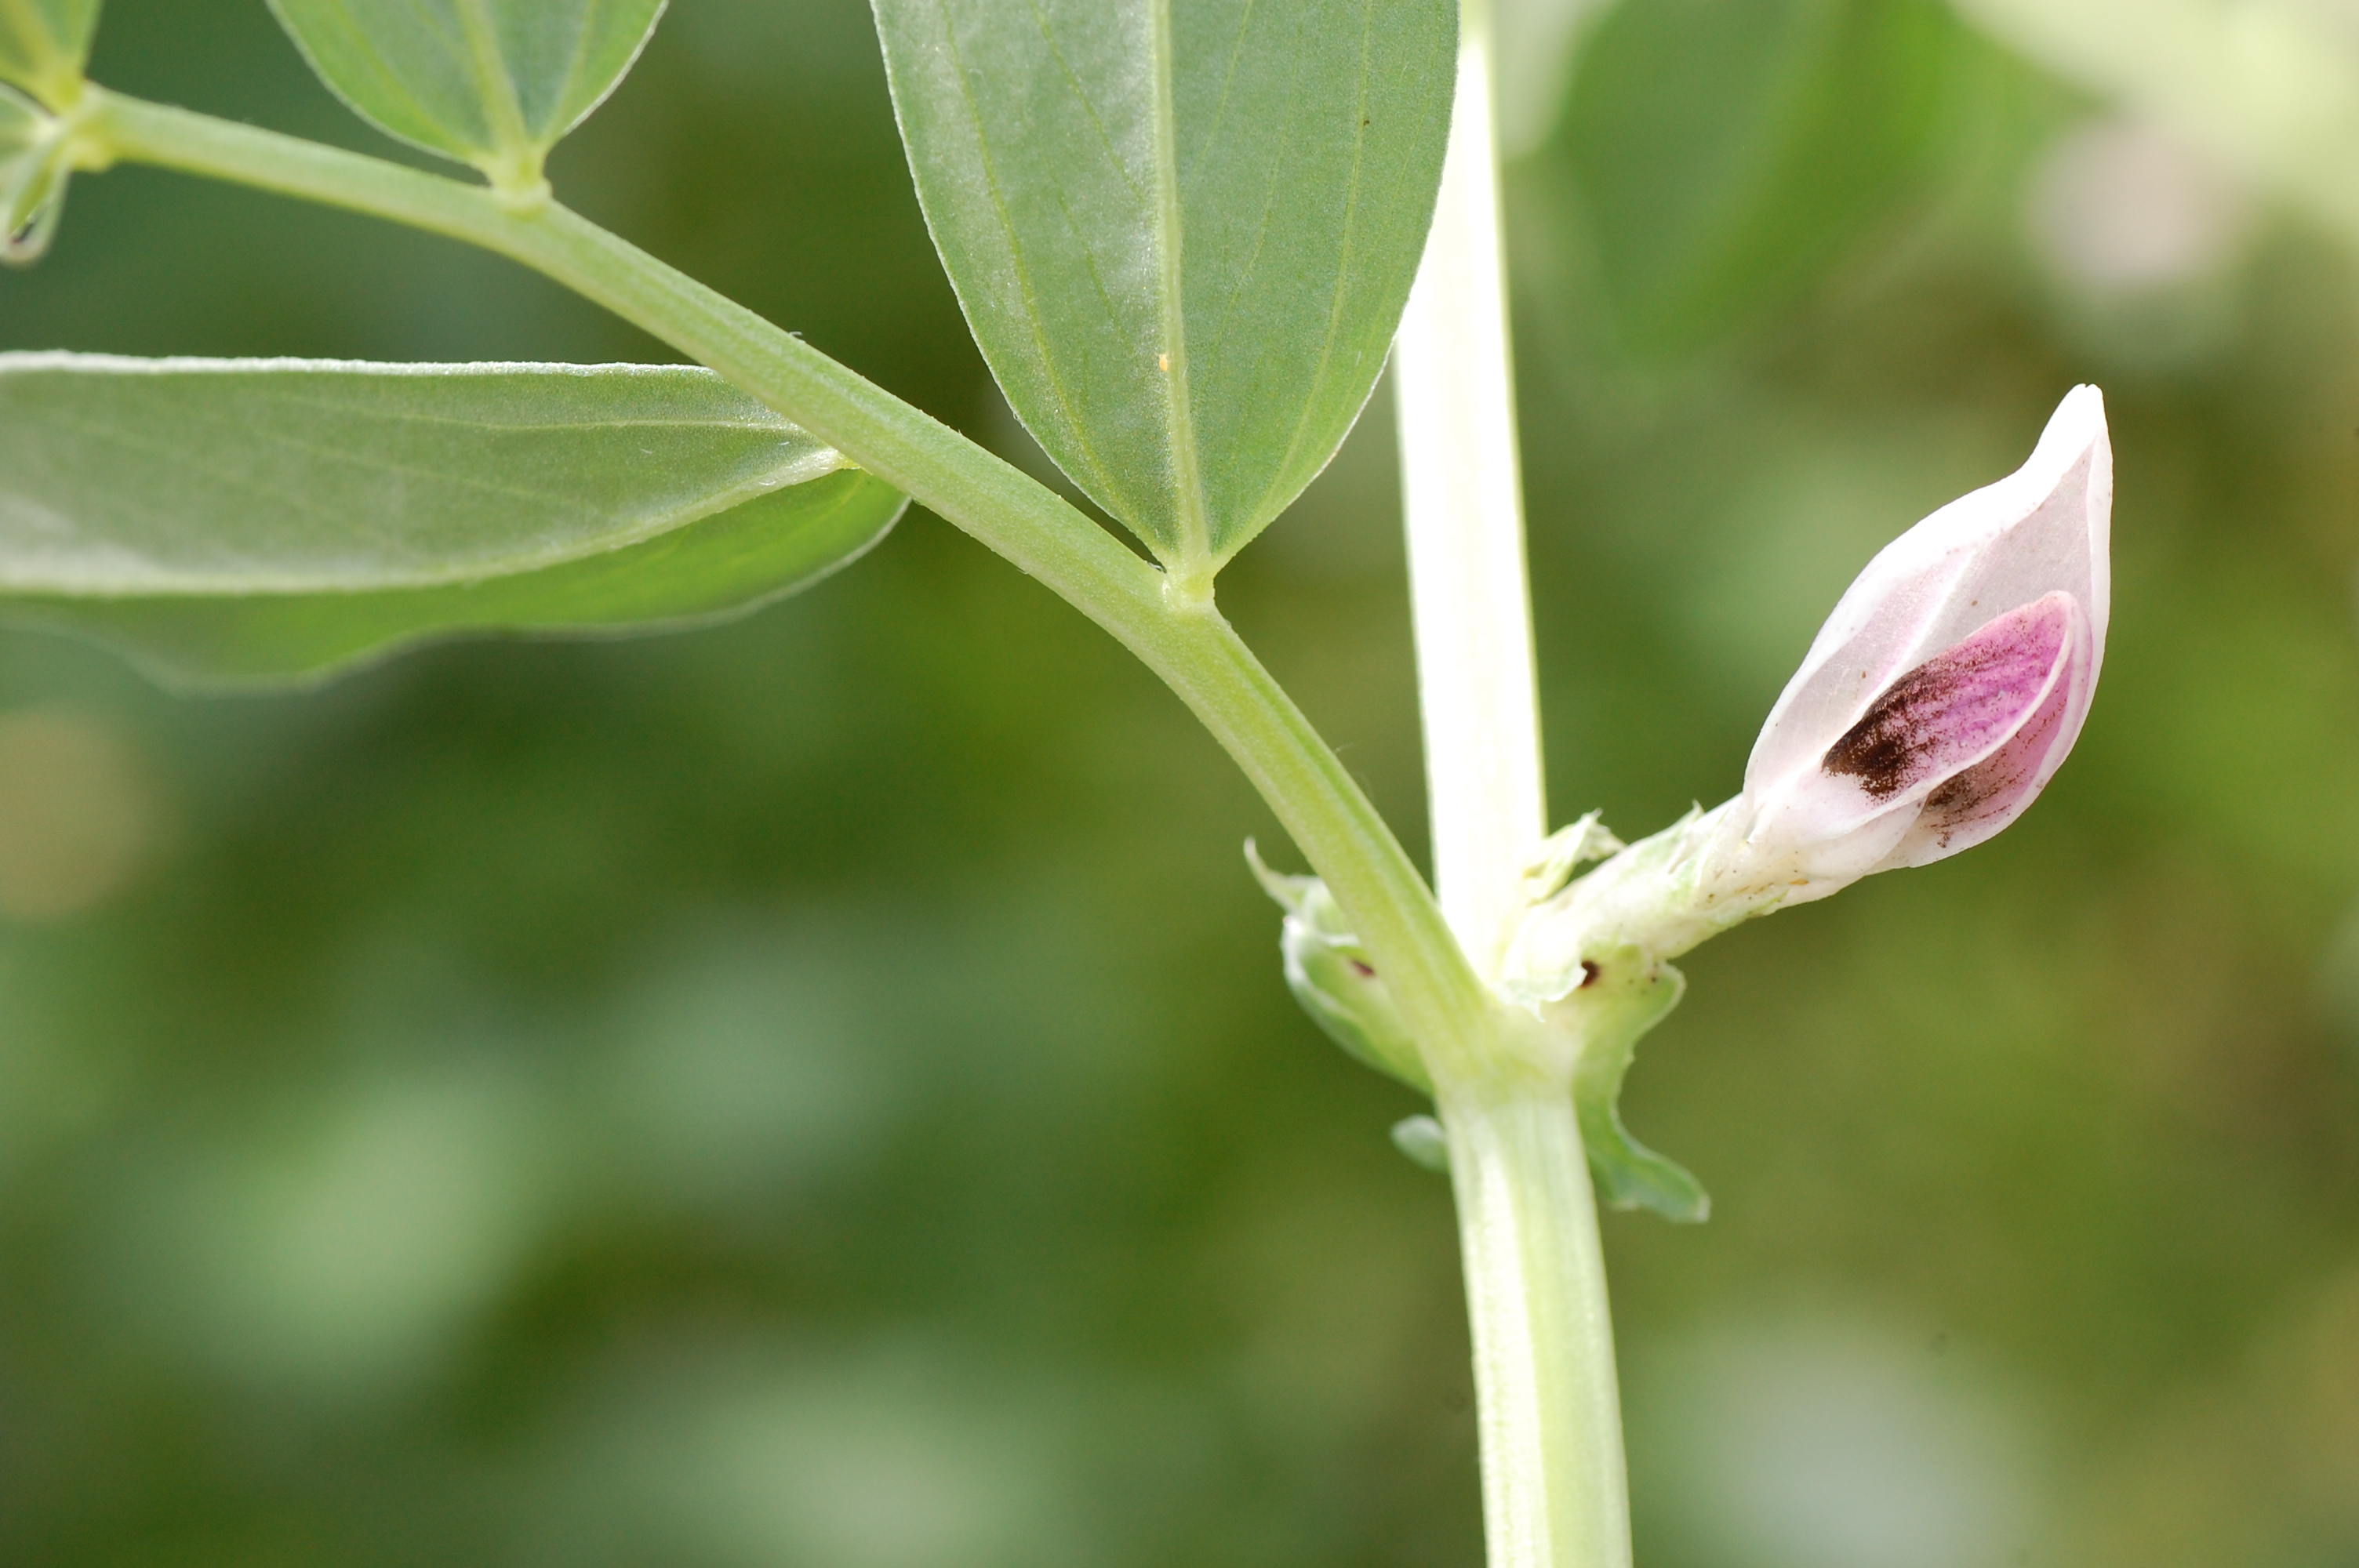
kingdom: Plantae
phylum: Tracheophyta
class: Magnoliopsida
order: Fabales
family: Fabaceae
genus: Vicia
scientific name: Vicia faba
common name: Broad bean
